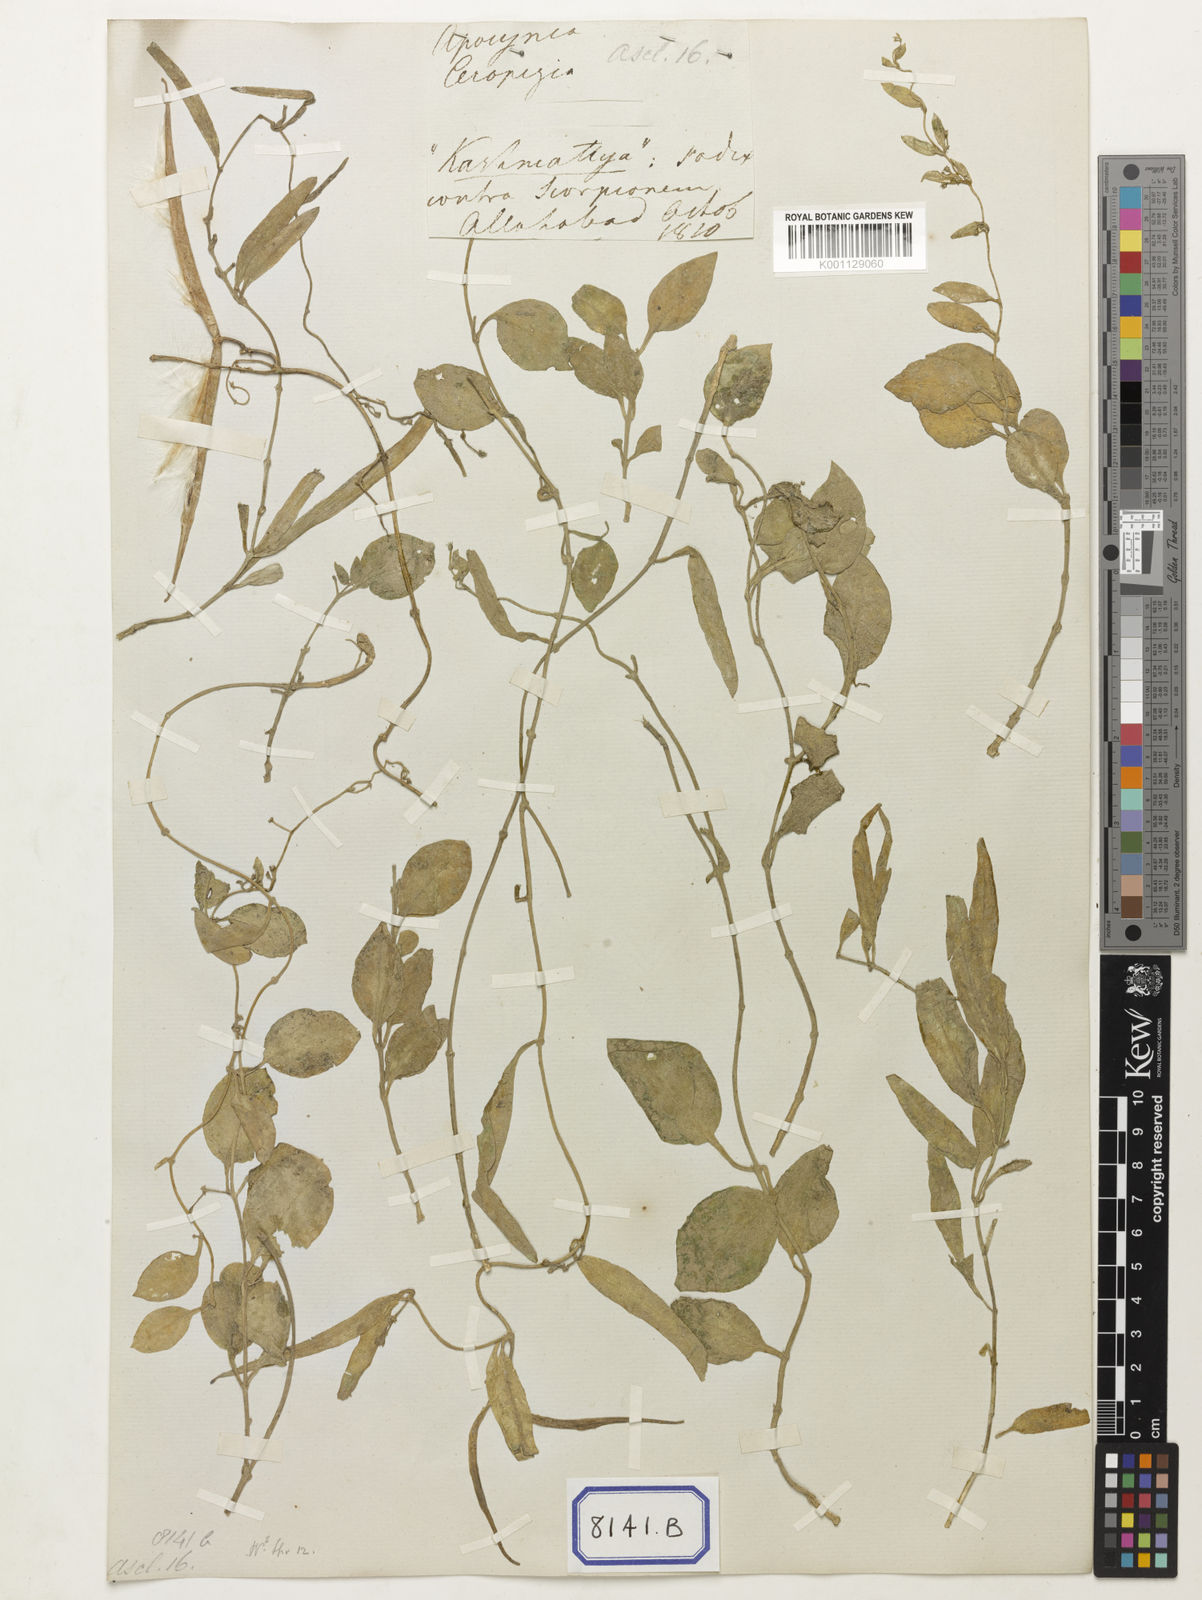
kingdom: Plantae
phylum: Tracheophyta
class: Magnoliopsida
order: Gentianales
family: Apocynaceae
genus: Ceropegia
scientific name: Ceropegia bulbosa
